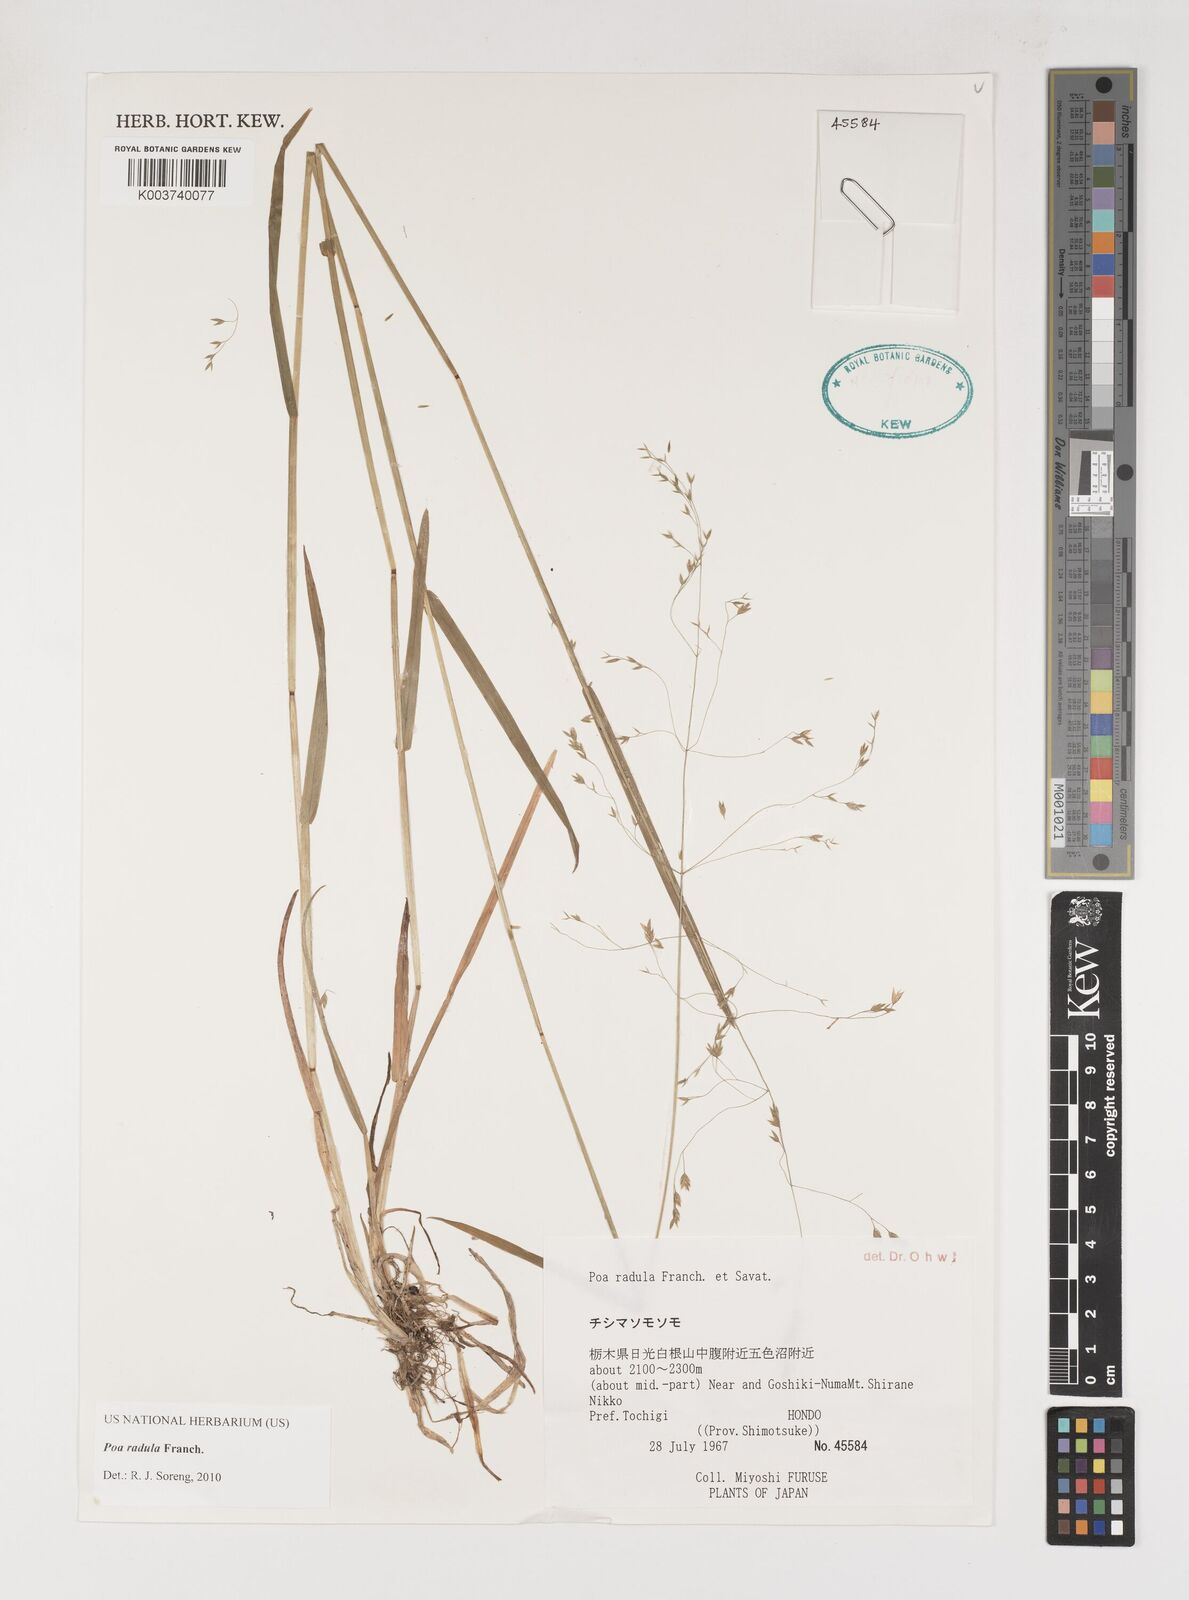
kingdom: Plantae
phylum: Tracheophyta
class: Liliopsida
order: Poales
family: Poaceae
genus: Poa
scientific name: Poa radula
